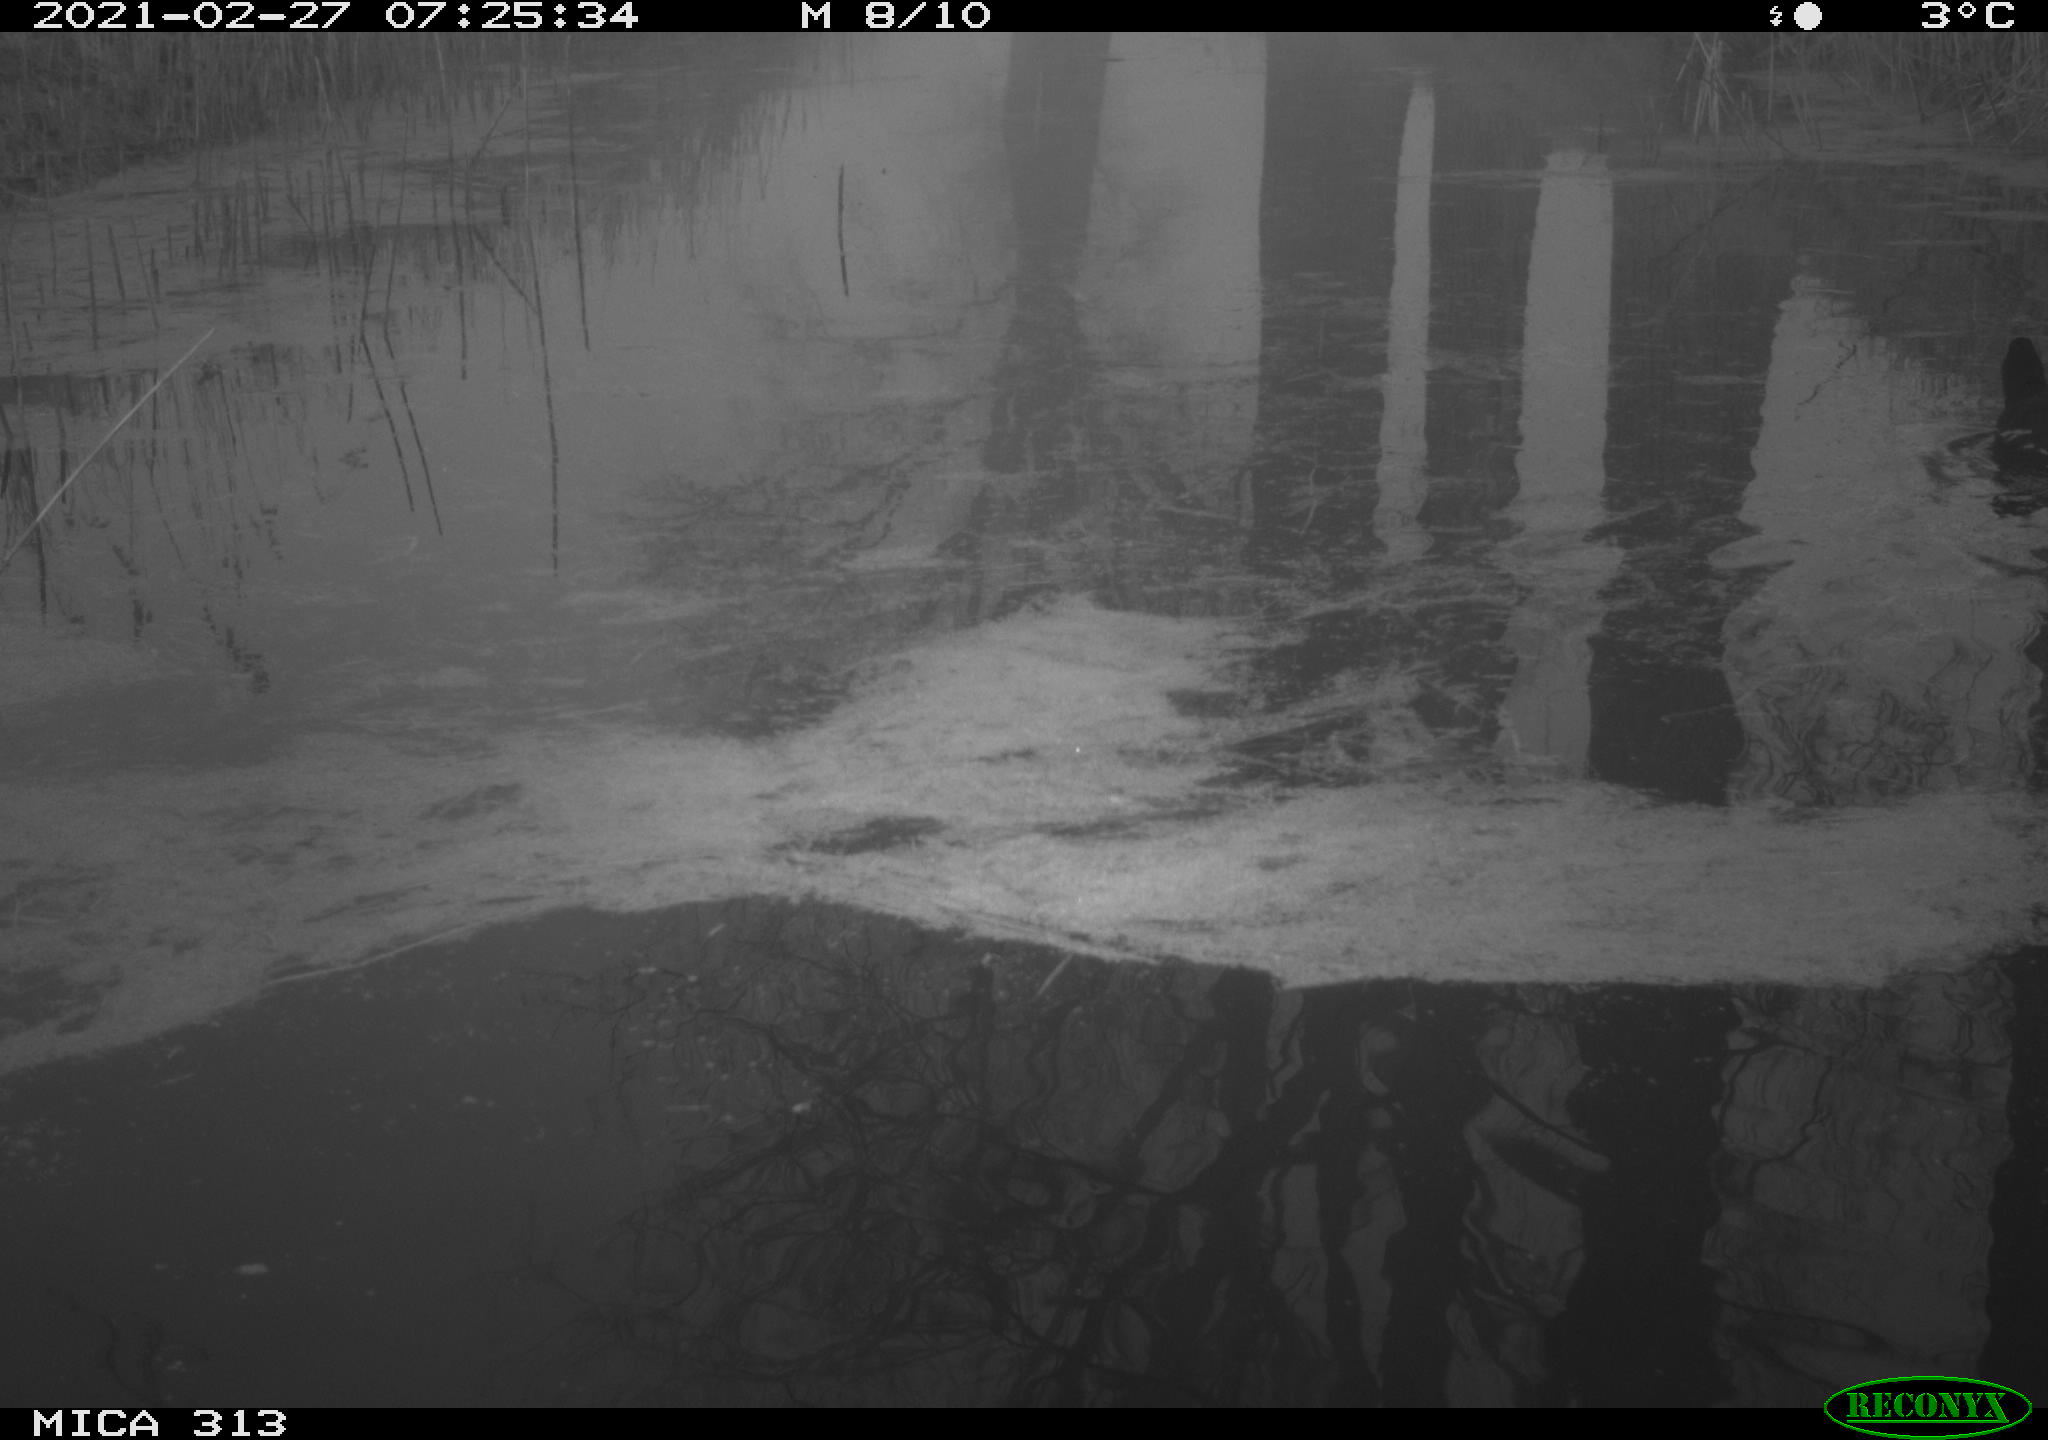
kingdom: Animalia
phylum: Chordata
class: Aves
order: Gruiformes
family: Rallidae
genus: Gallinula
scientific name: Gallinula chloropus
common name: Common moorhen
